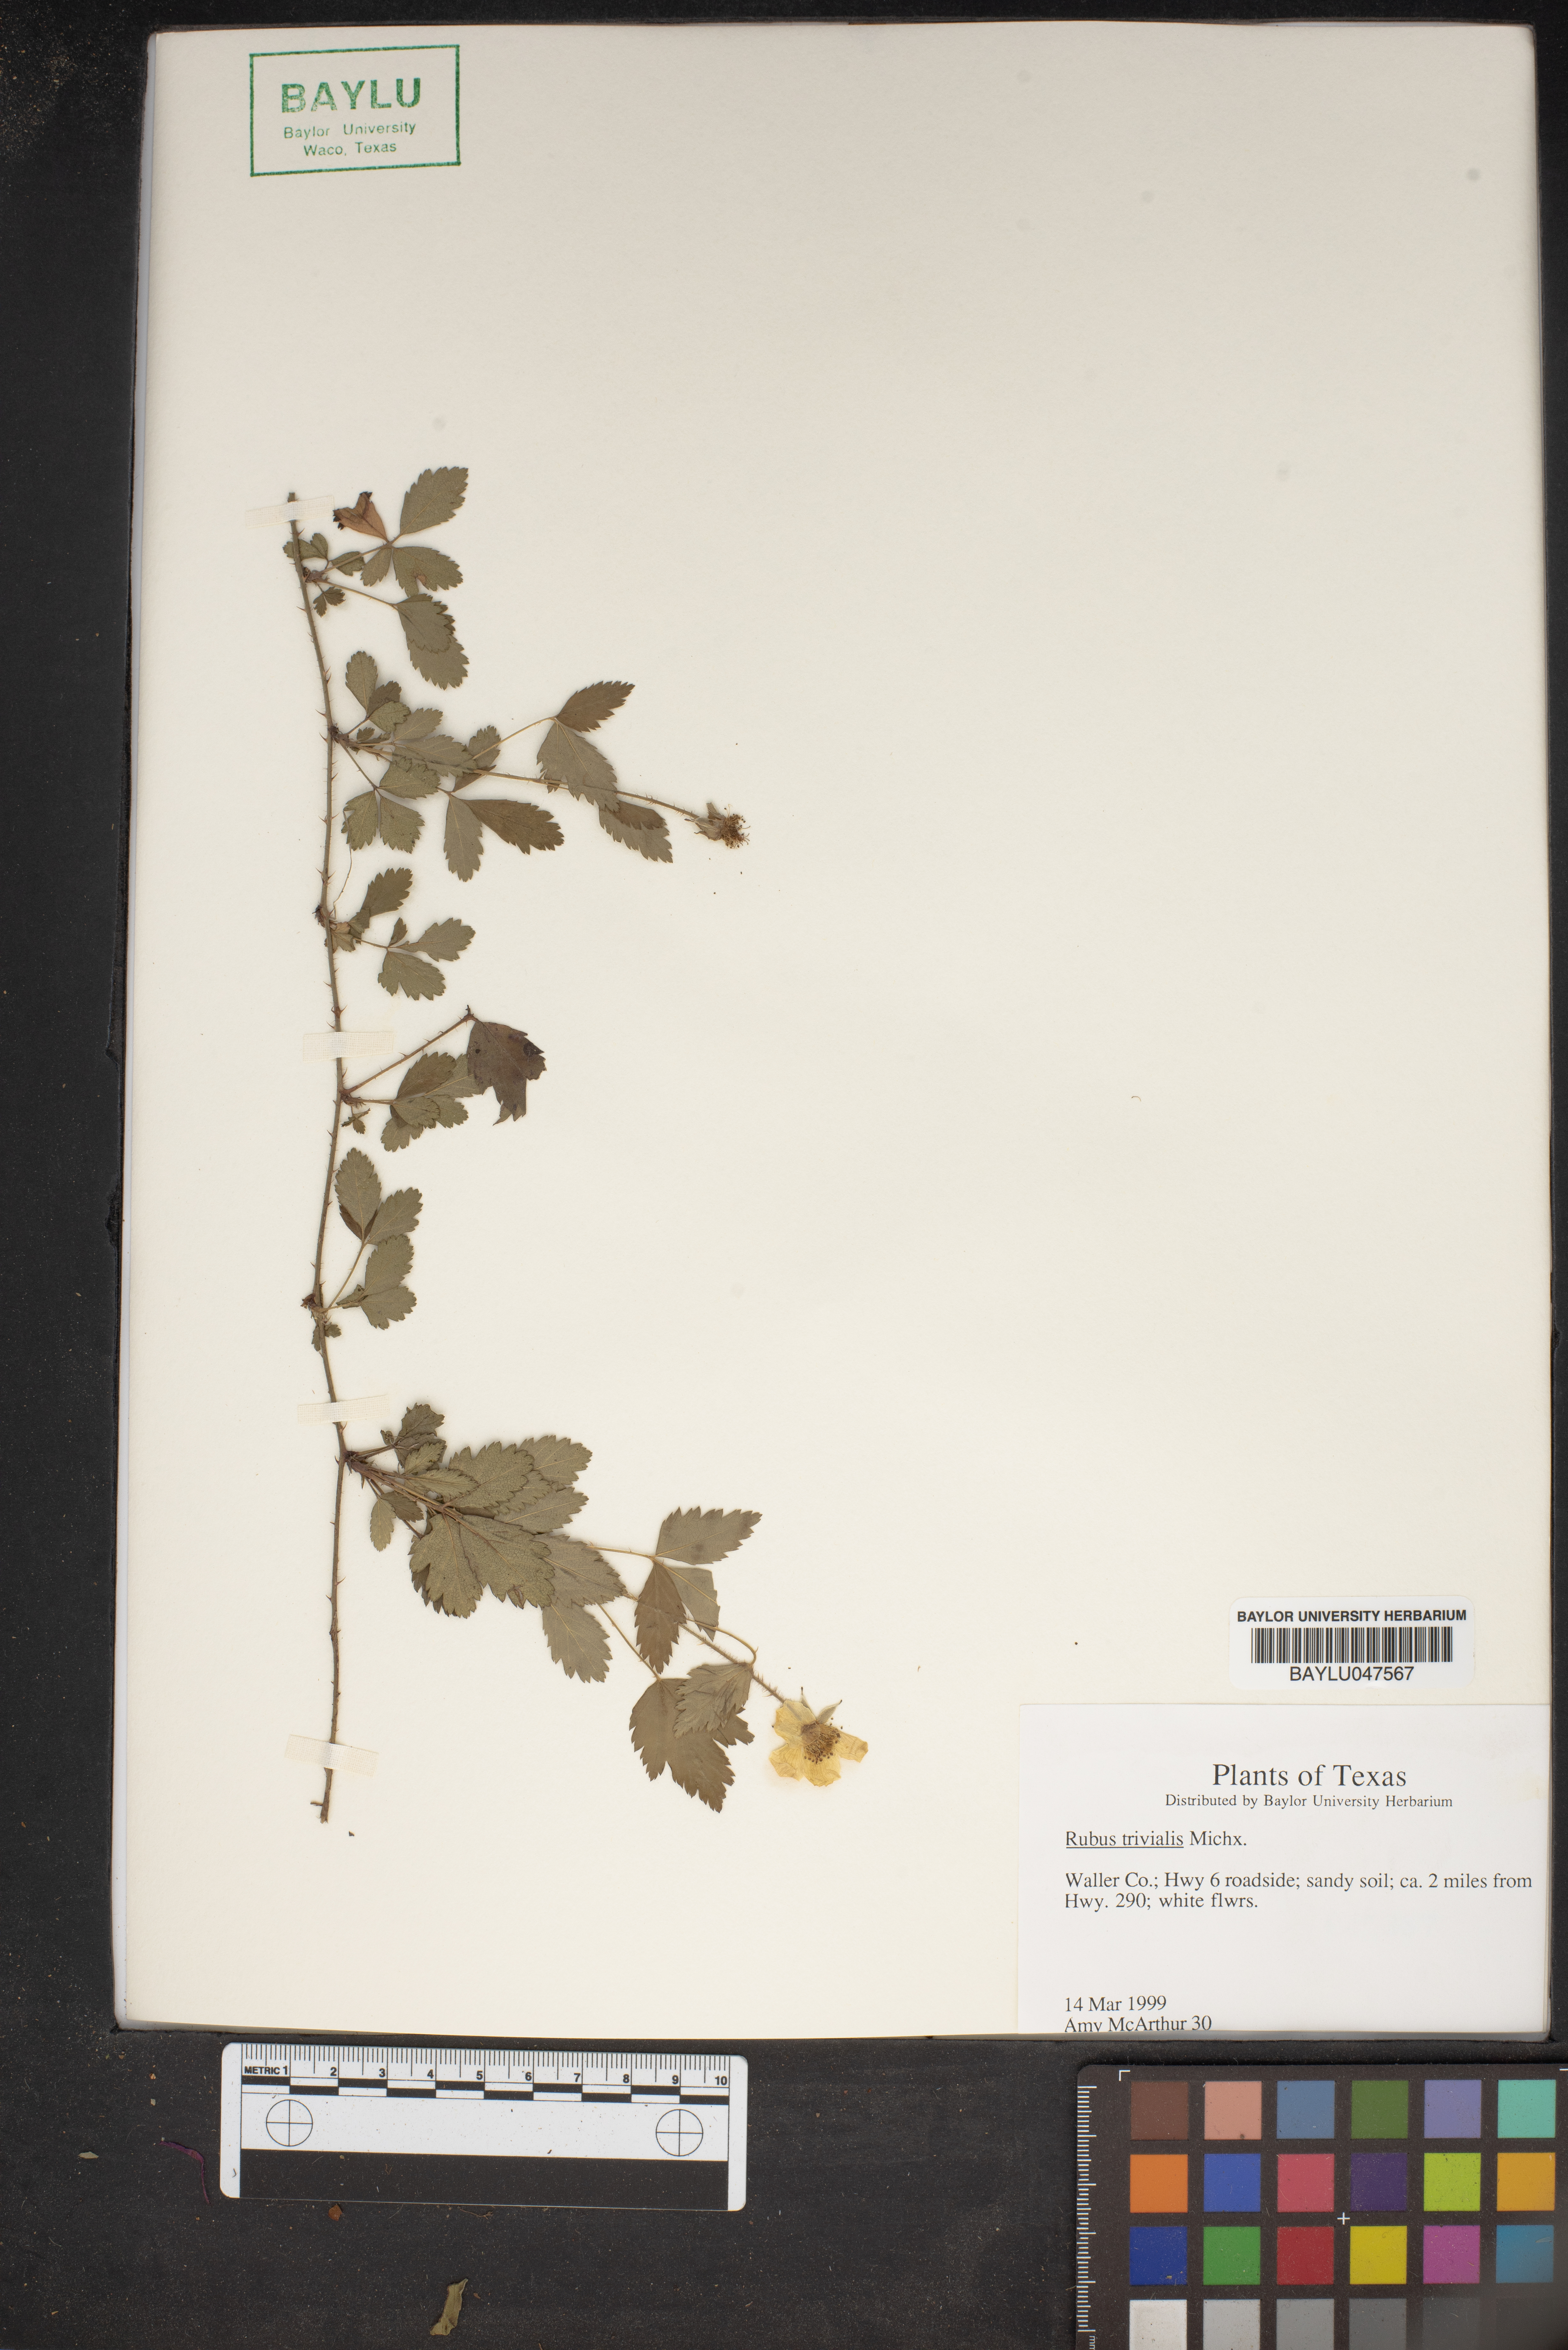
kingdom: Plantae
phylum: Tracheophyta
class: Magnoliopsida
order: Rosales
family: Rosaceae
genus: Rubus
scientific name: Rubus trivialis
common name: Southern dewberry
